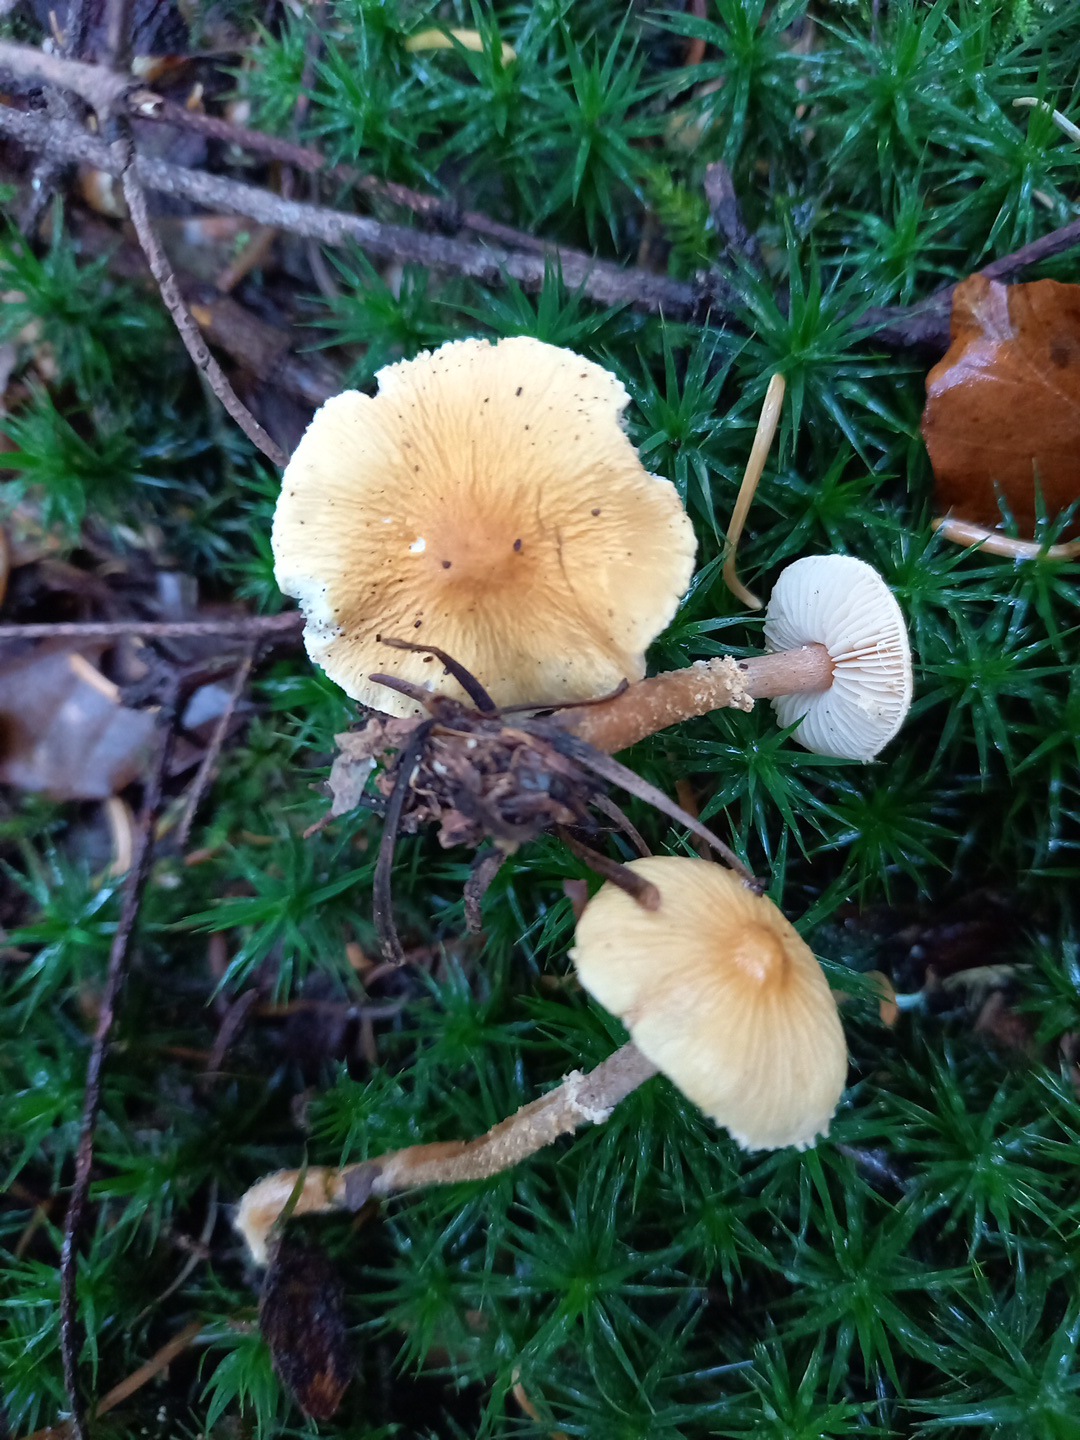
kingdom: Fungi
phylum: Basidiomycota
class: Agaricomycetes
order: Agaricales
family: Tricholomataceae
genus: Cystoderma
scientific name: Cystoderma amianthinum
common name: okkergul grynhat
